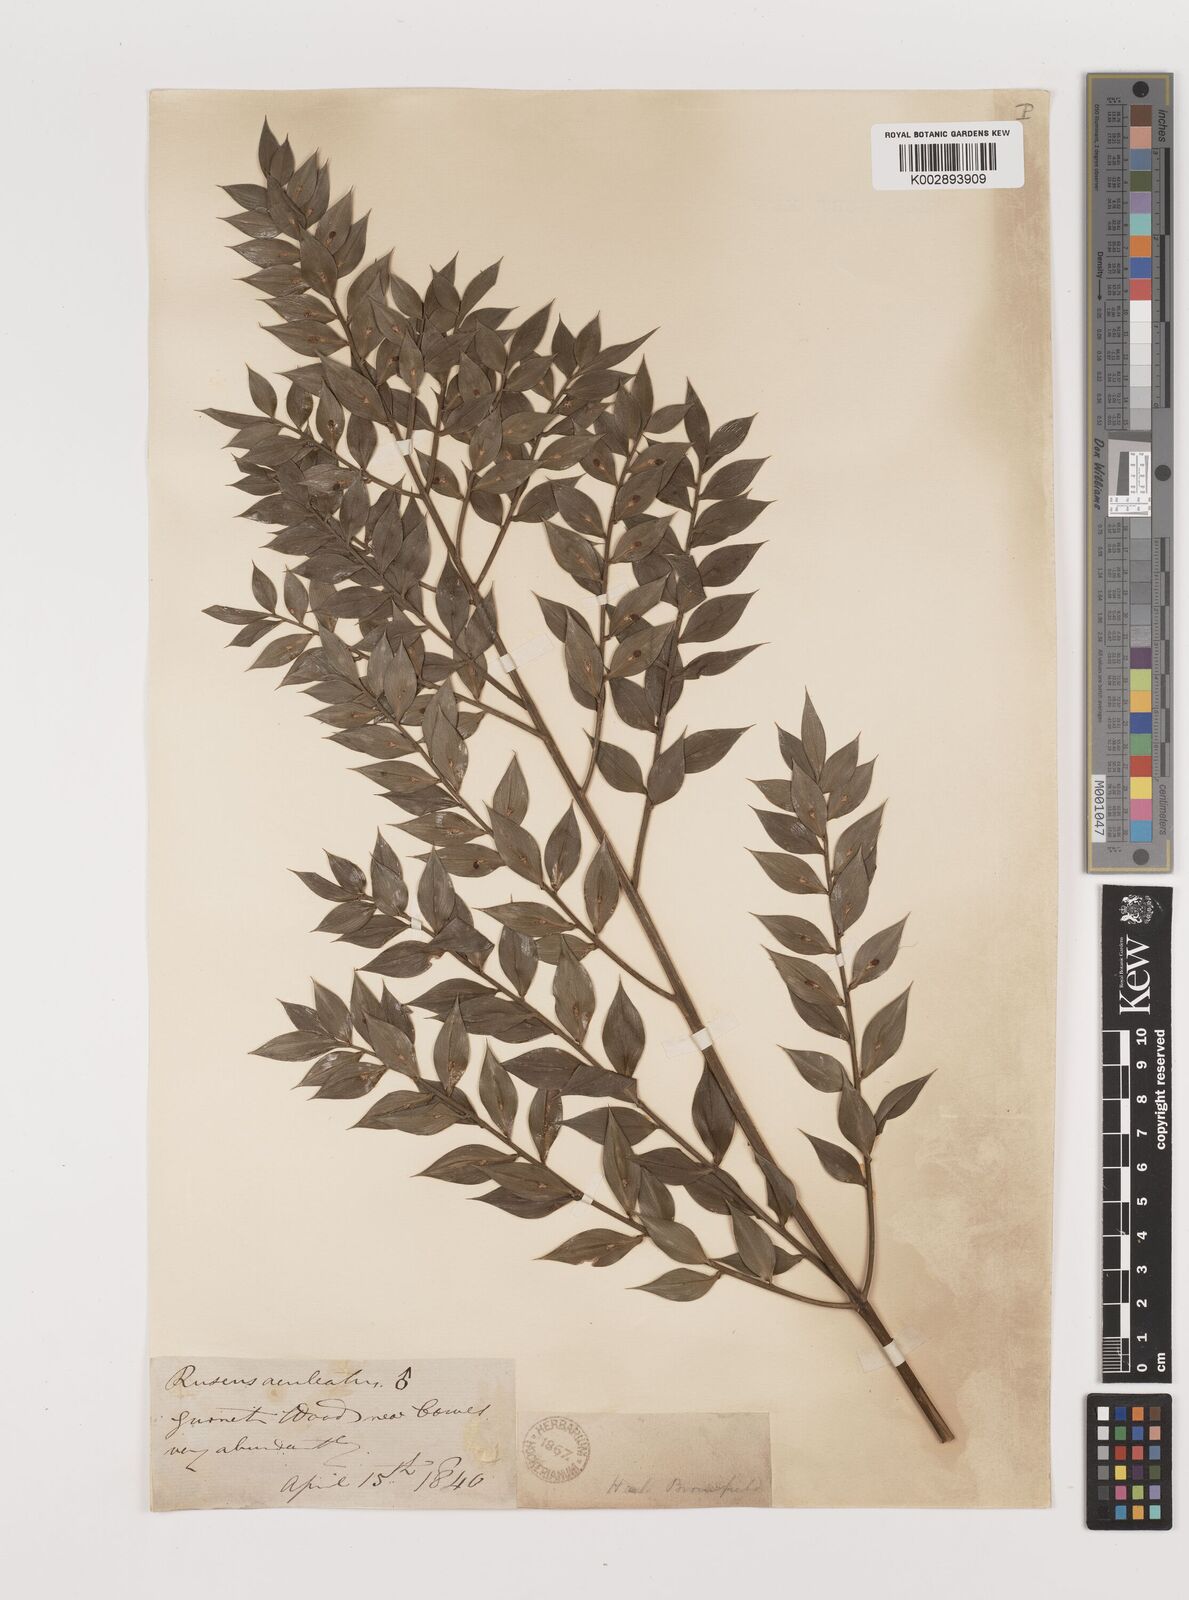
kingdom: Plantae
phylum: Tracheophyta
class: Liliopsida
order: Asparagales
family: Asparagaceae
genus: Ruscus
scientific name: Ruscus aculeatus
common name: Butcher's-broom
